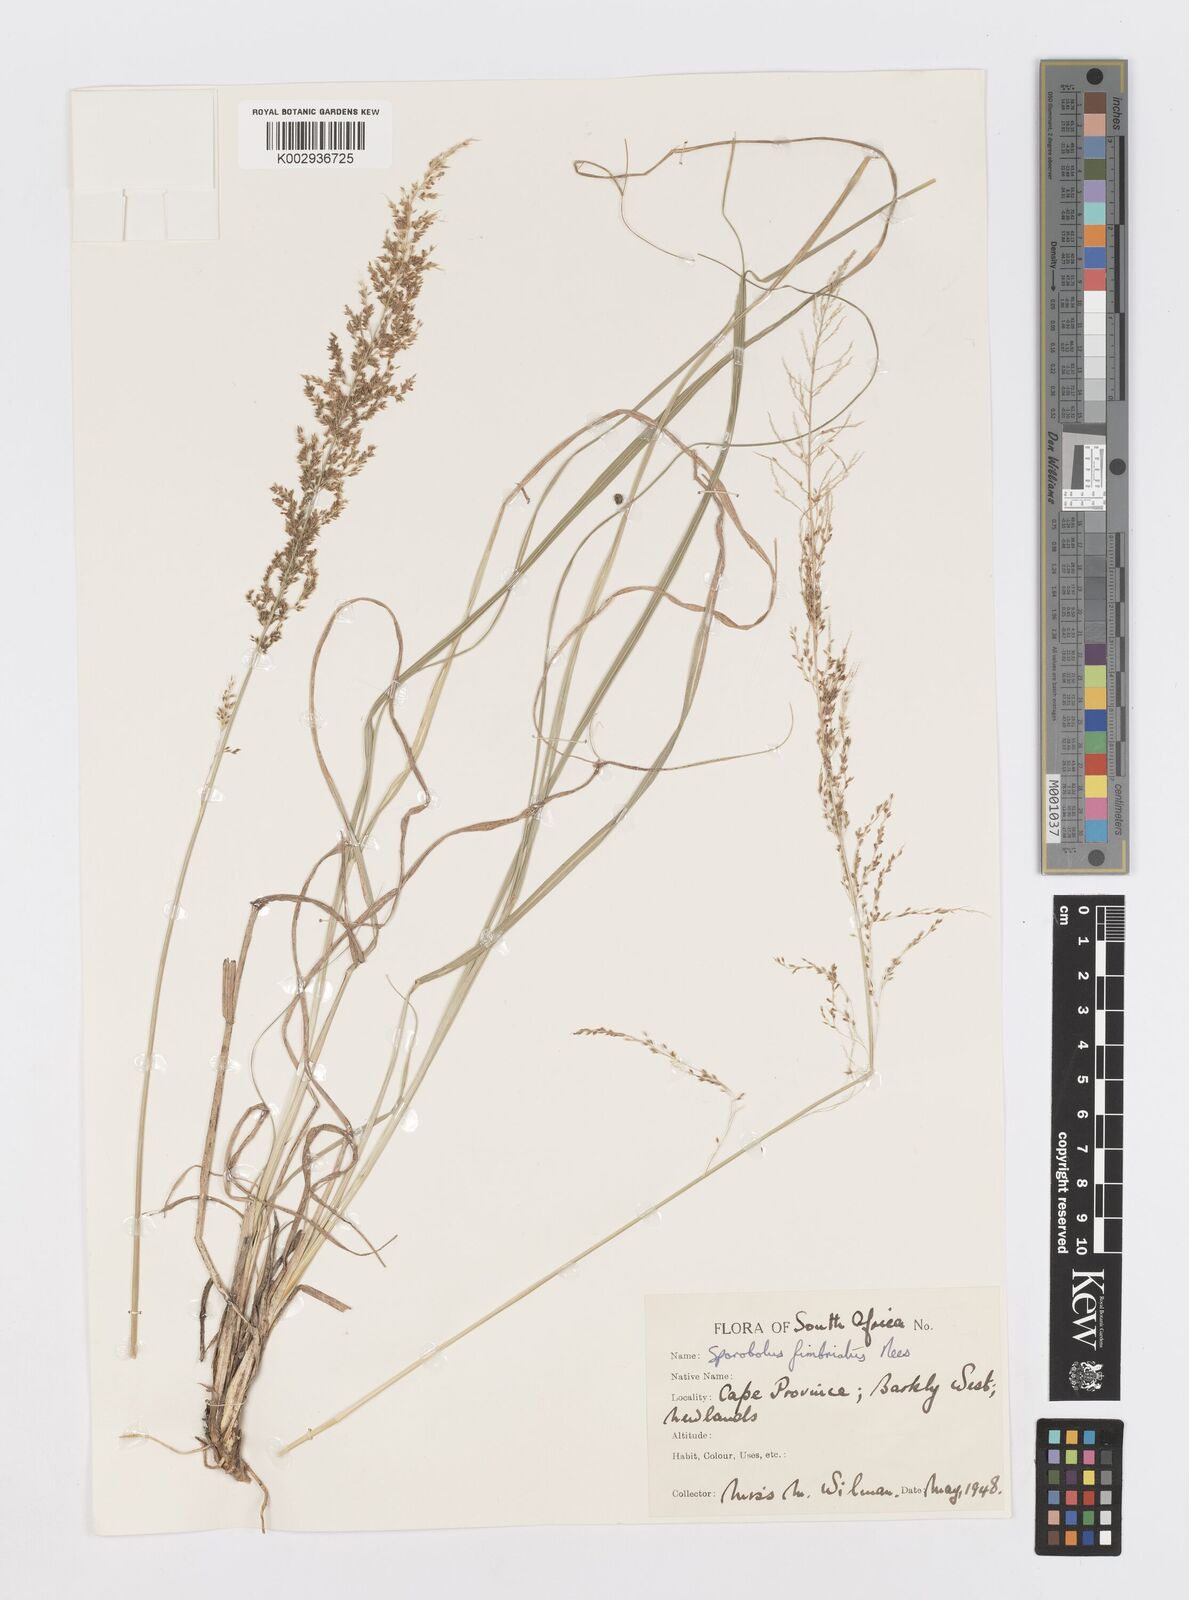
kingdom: Plantae
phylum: Tracheophyta
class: Liliopsida
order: Poales
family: Poaceae
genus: Sporobolus
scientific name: Sporobolus fimbriatus
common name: Fringed dropseed
